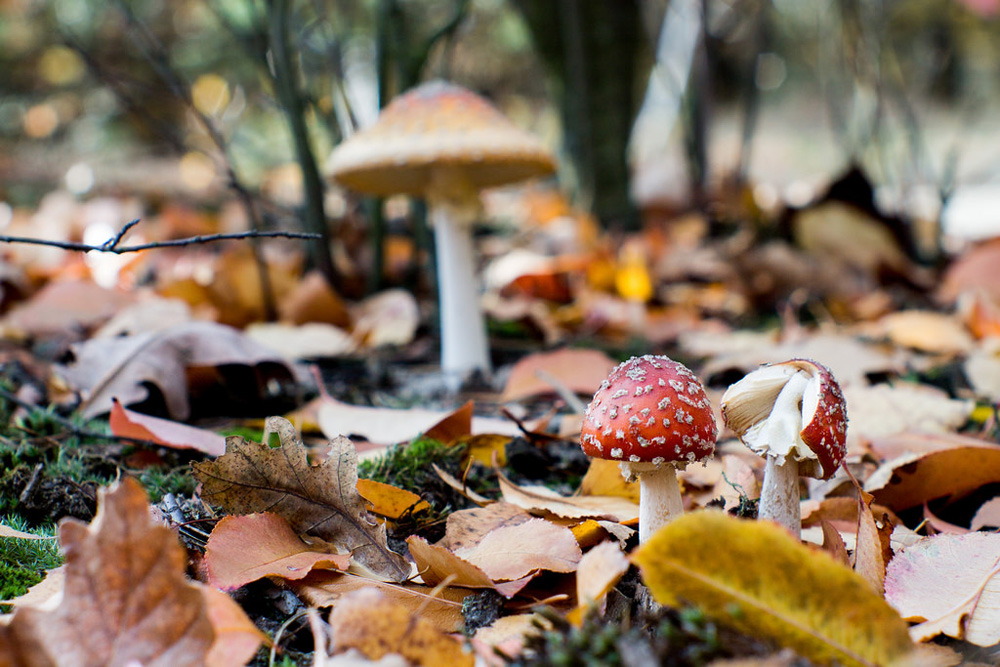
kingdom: Fungi
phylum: Basidiomycota
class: Agaricomycetes
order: Agaricales
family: Amanitaceae
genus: Amanita
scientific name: Amanita muscaria
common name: Fly agaric
